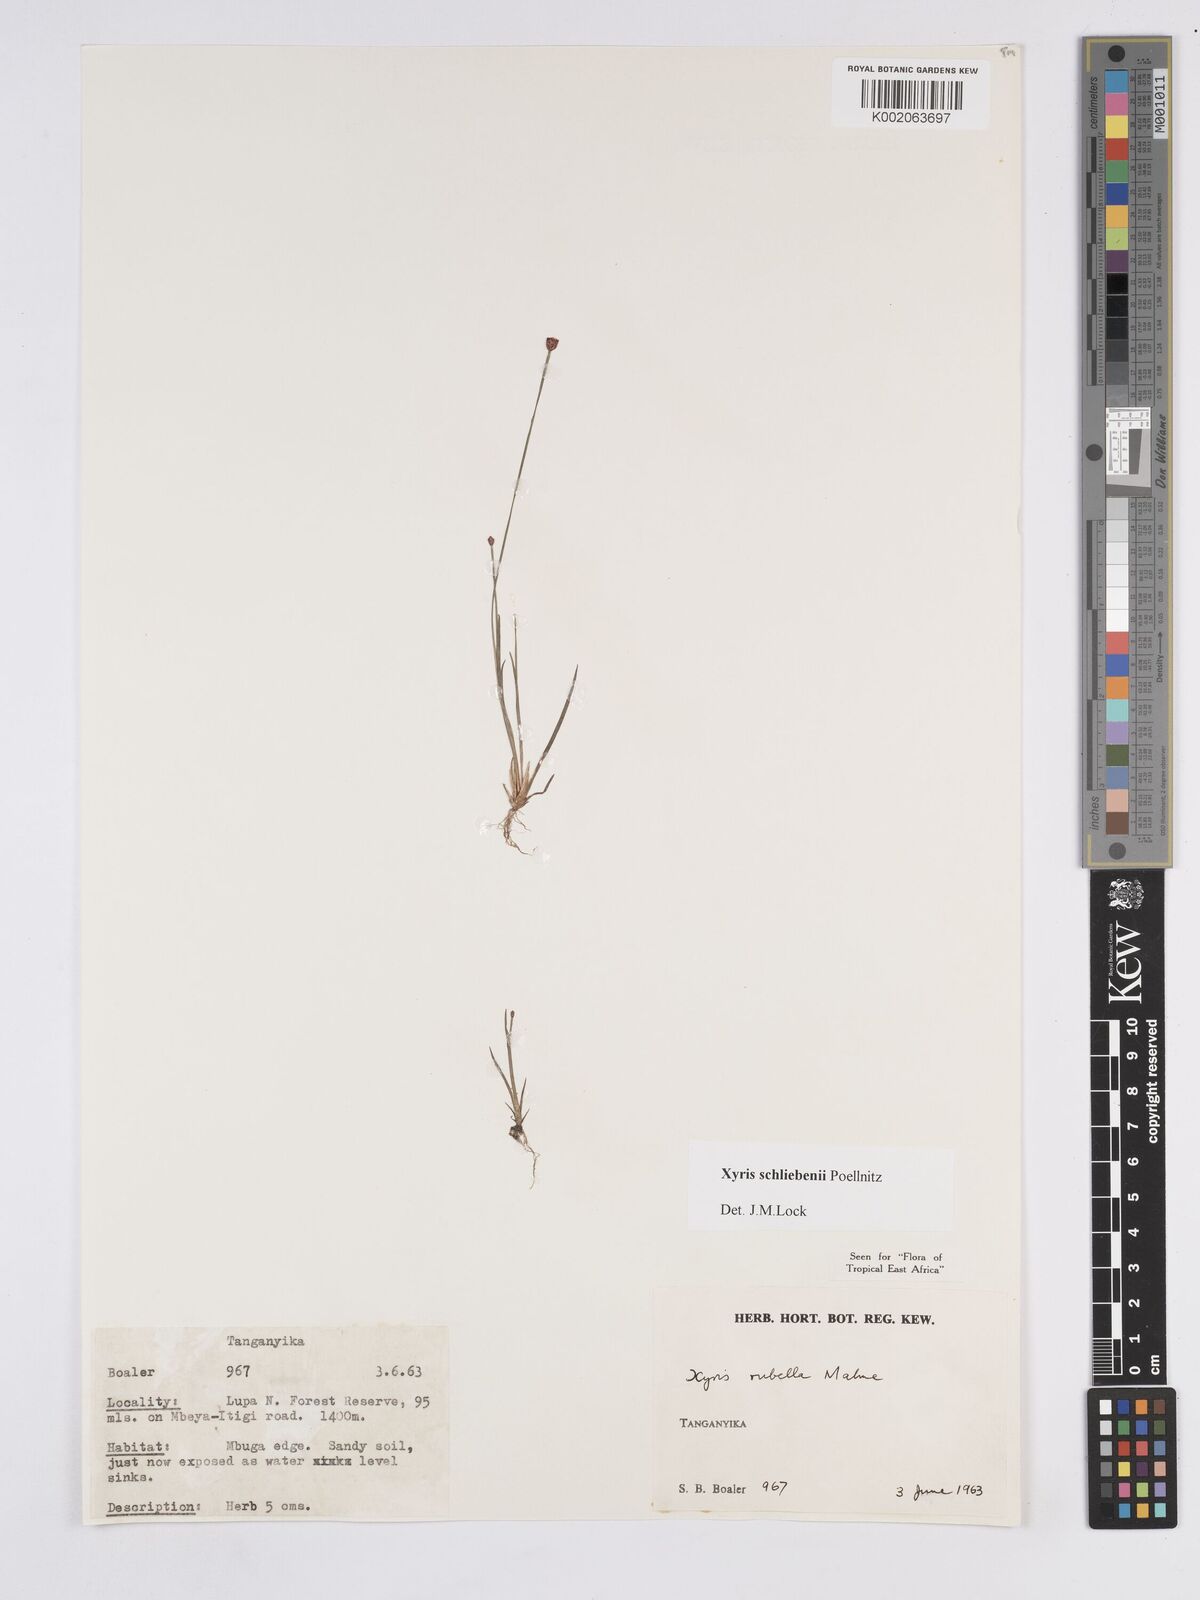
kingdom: Plantae
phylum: Tracheophyta
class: Liliopsida
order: Poales
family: Xyridaceae
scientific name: Xyridaceae
